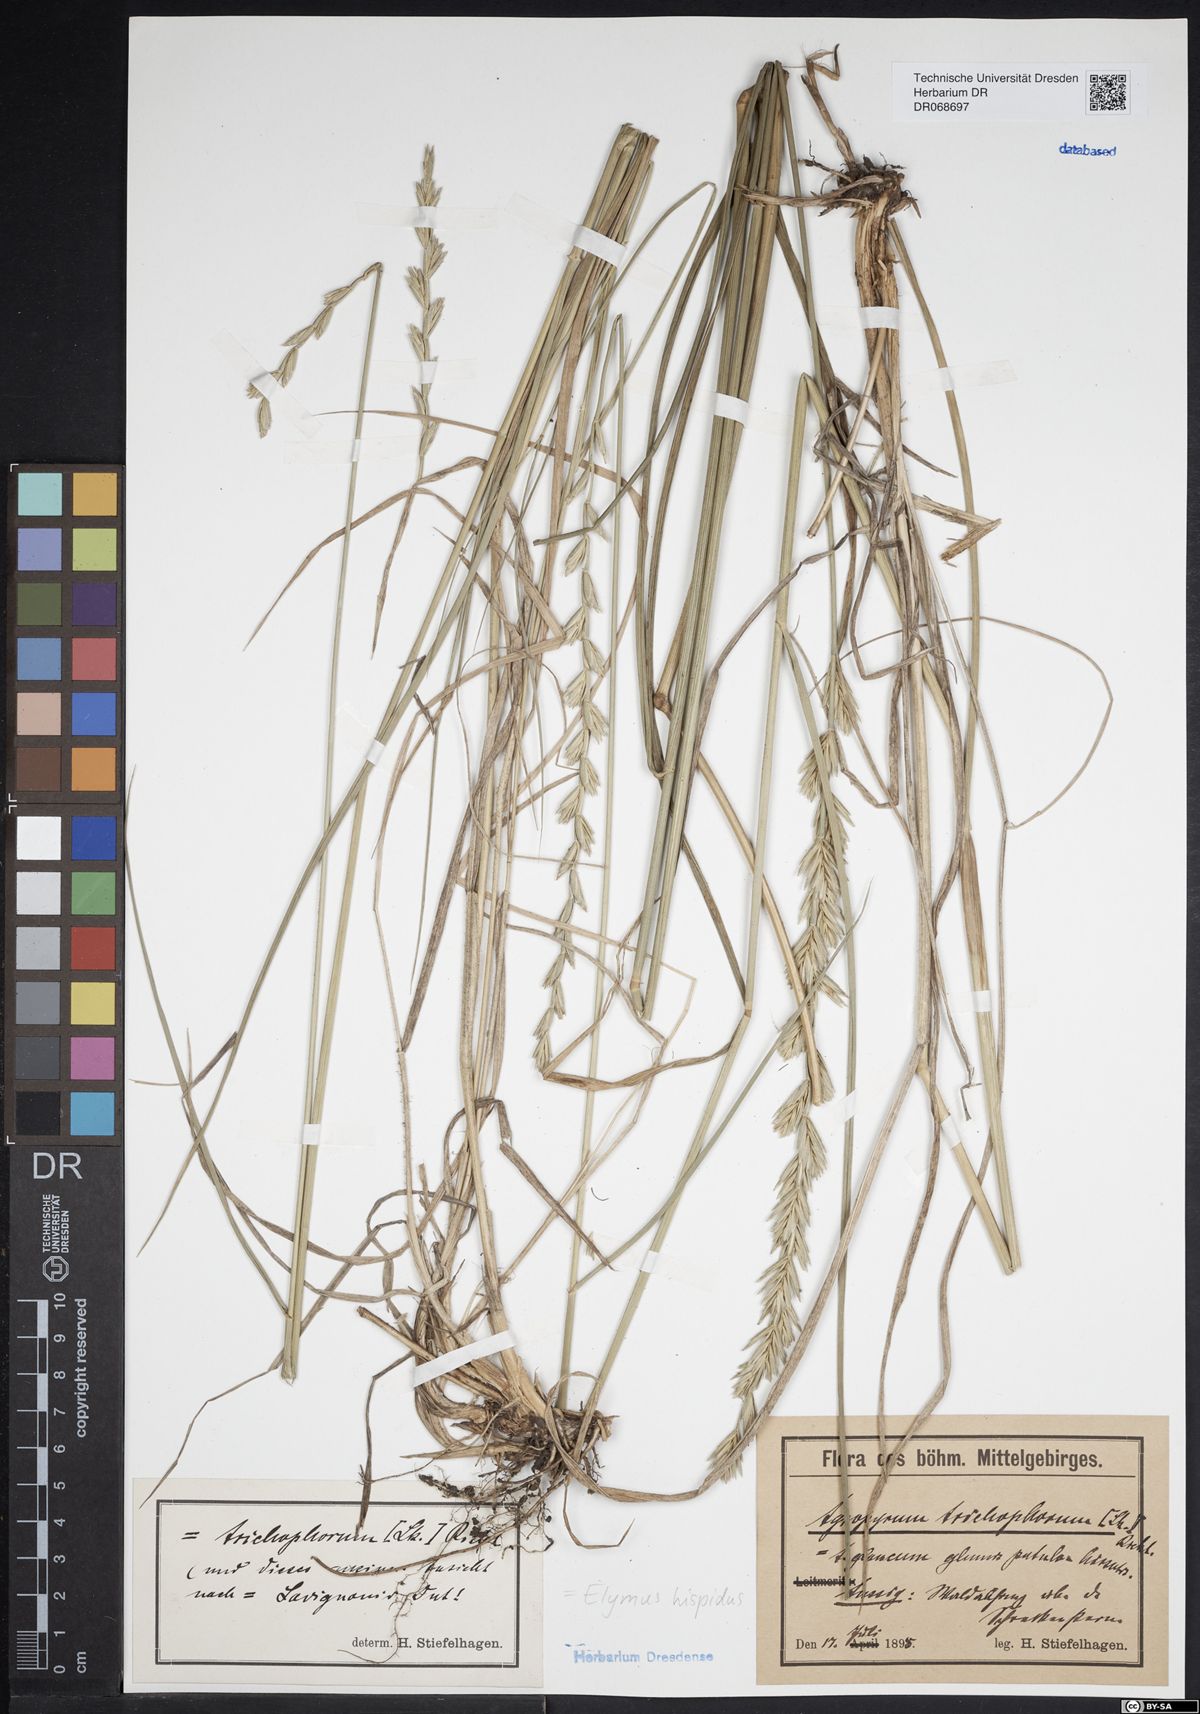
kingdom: Plantae
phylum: Tracheophyta
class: Liliopsida
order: Poales
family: Poaceae
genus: Thinopyrum
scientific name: Thinopyrum intermedium
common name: Intermediate wheatgrass
